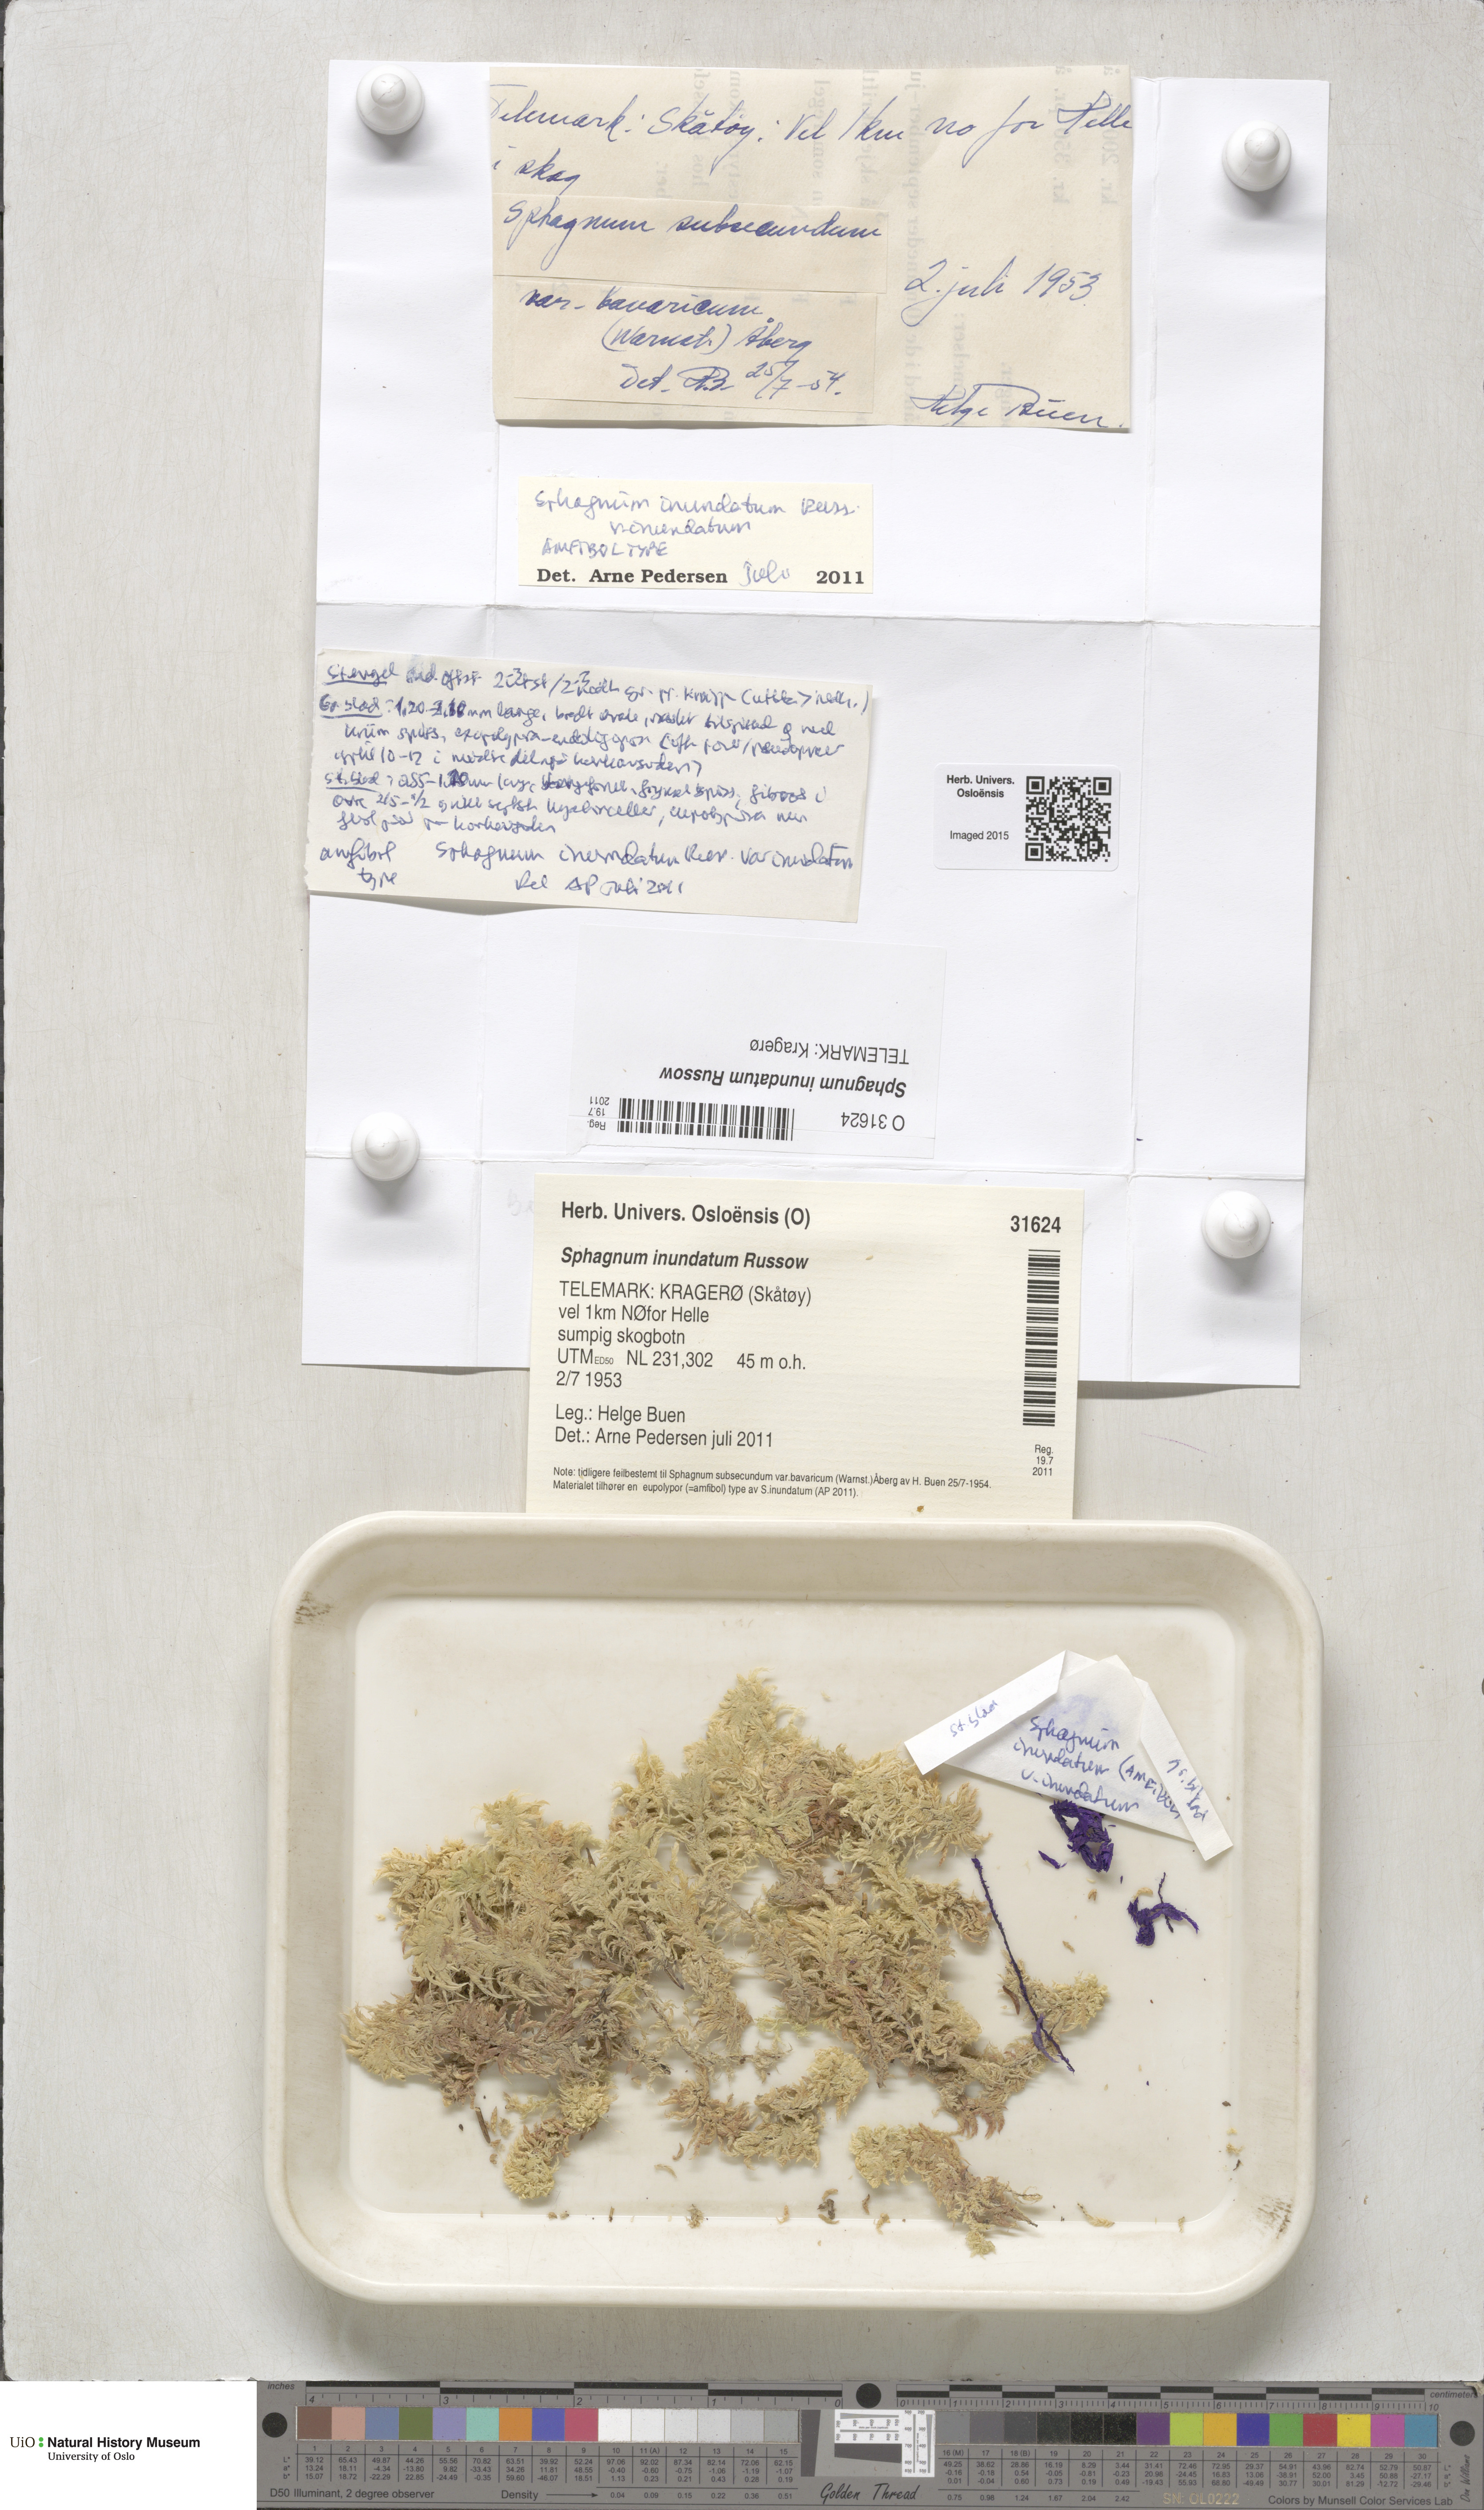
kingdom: Plantae
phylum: Bryophyta
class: Sphagnopsida
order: Sphagnales
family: Sphagnaceae
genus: Sphagnum
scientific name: Sphagnum inundatum
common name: Lesser cow-horn bog-moss
